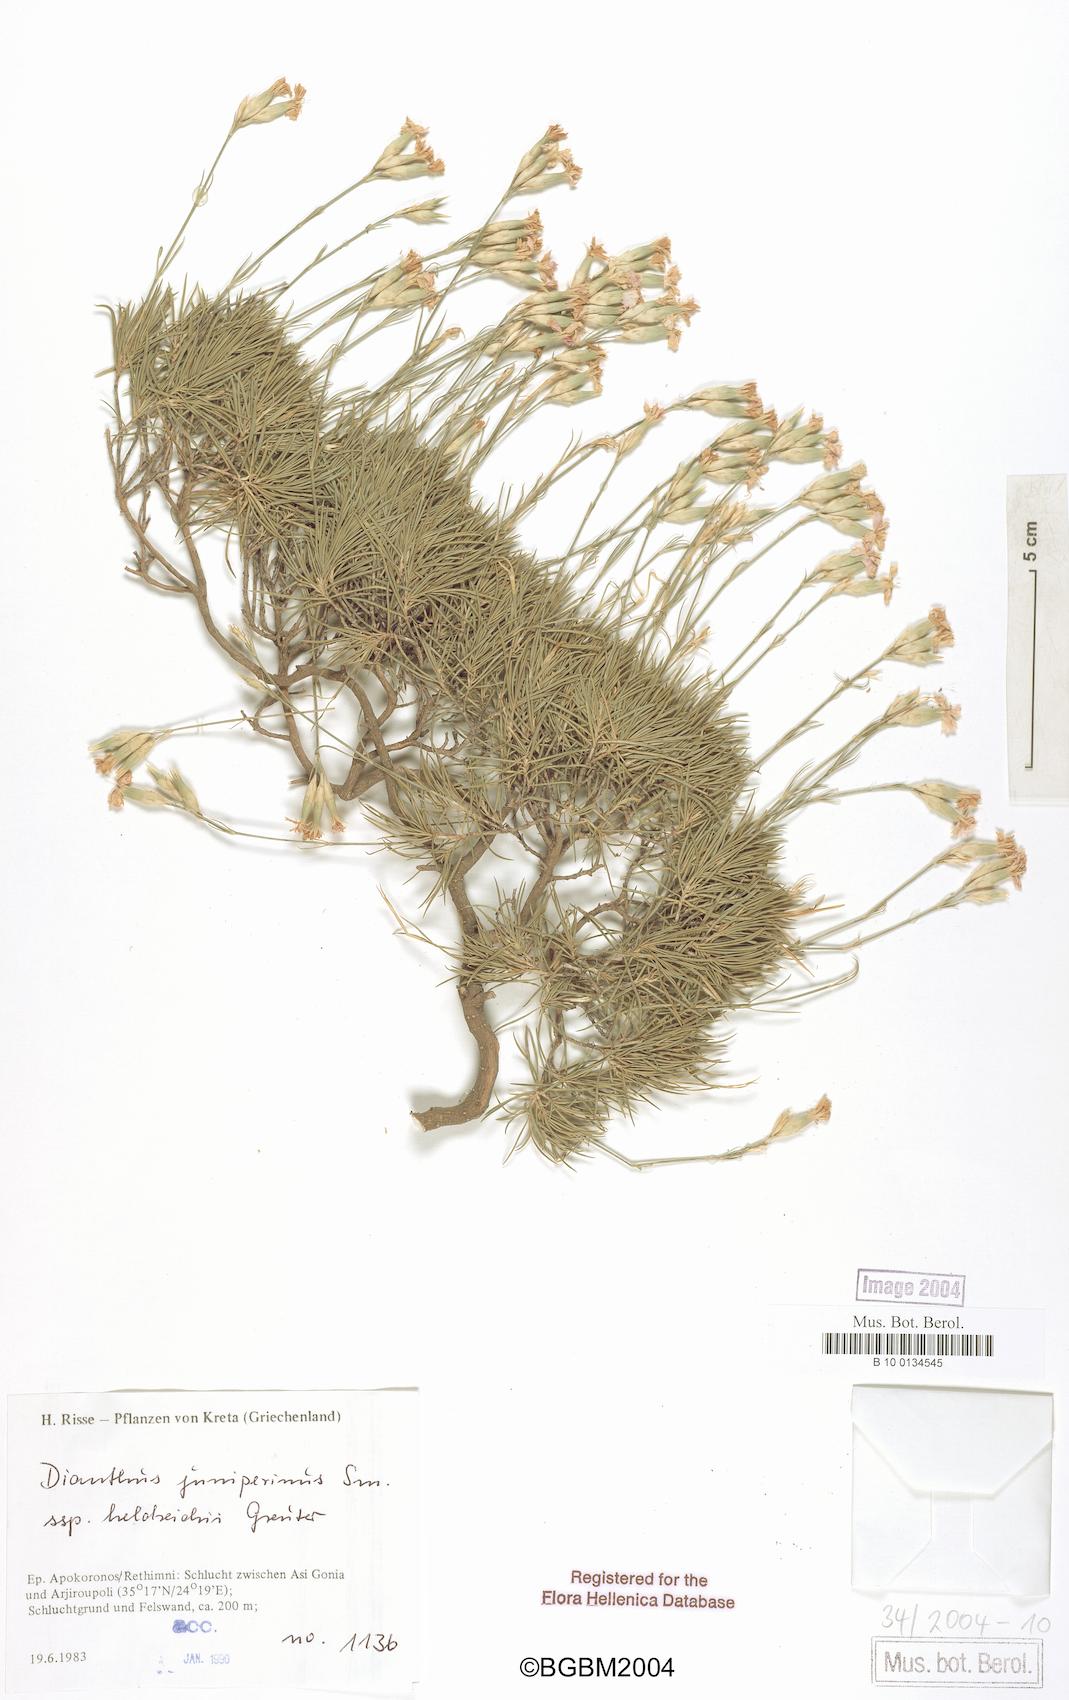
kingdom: Plantae
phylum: Tracheophyta
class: Magnoliopsida
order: Caryophyllales
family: Caryophyllaceae
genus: Dianthus
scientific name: Dianthus juniperinus
